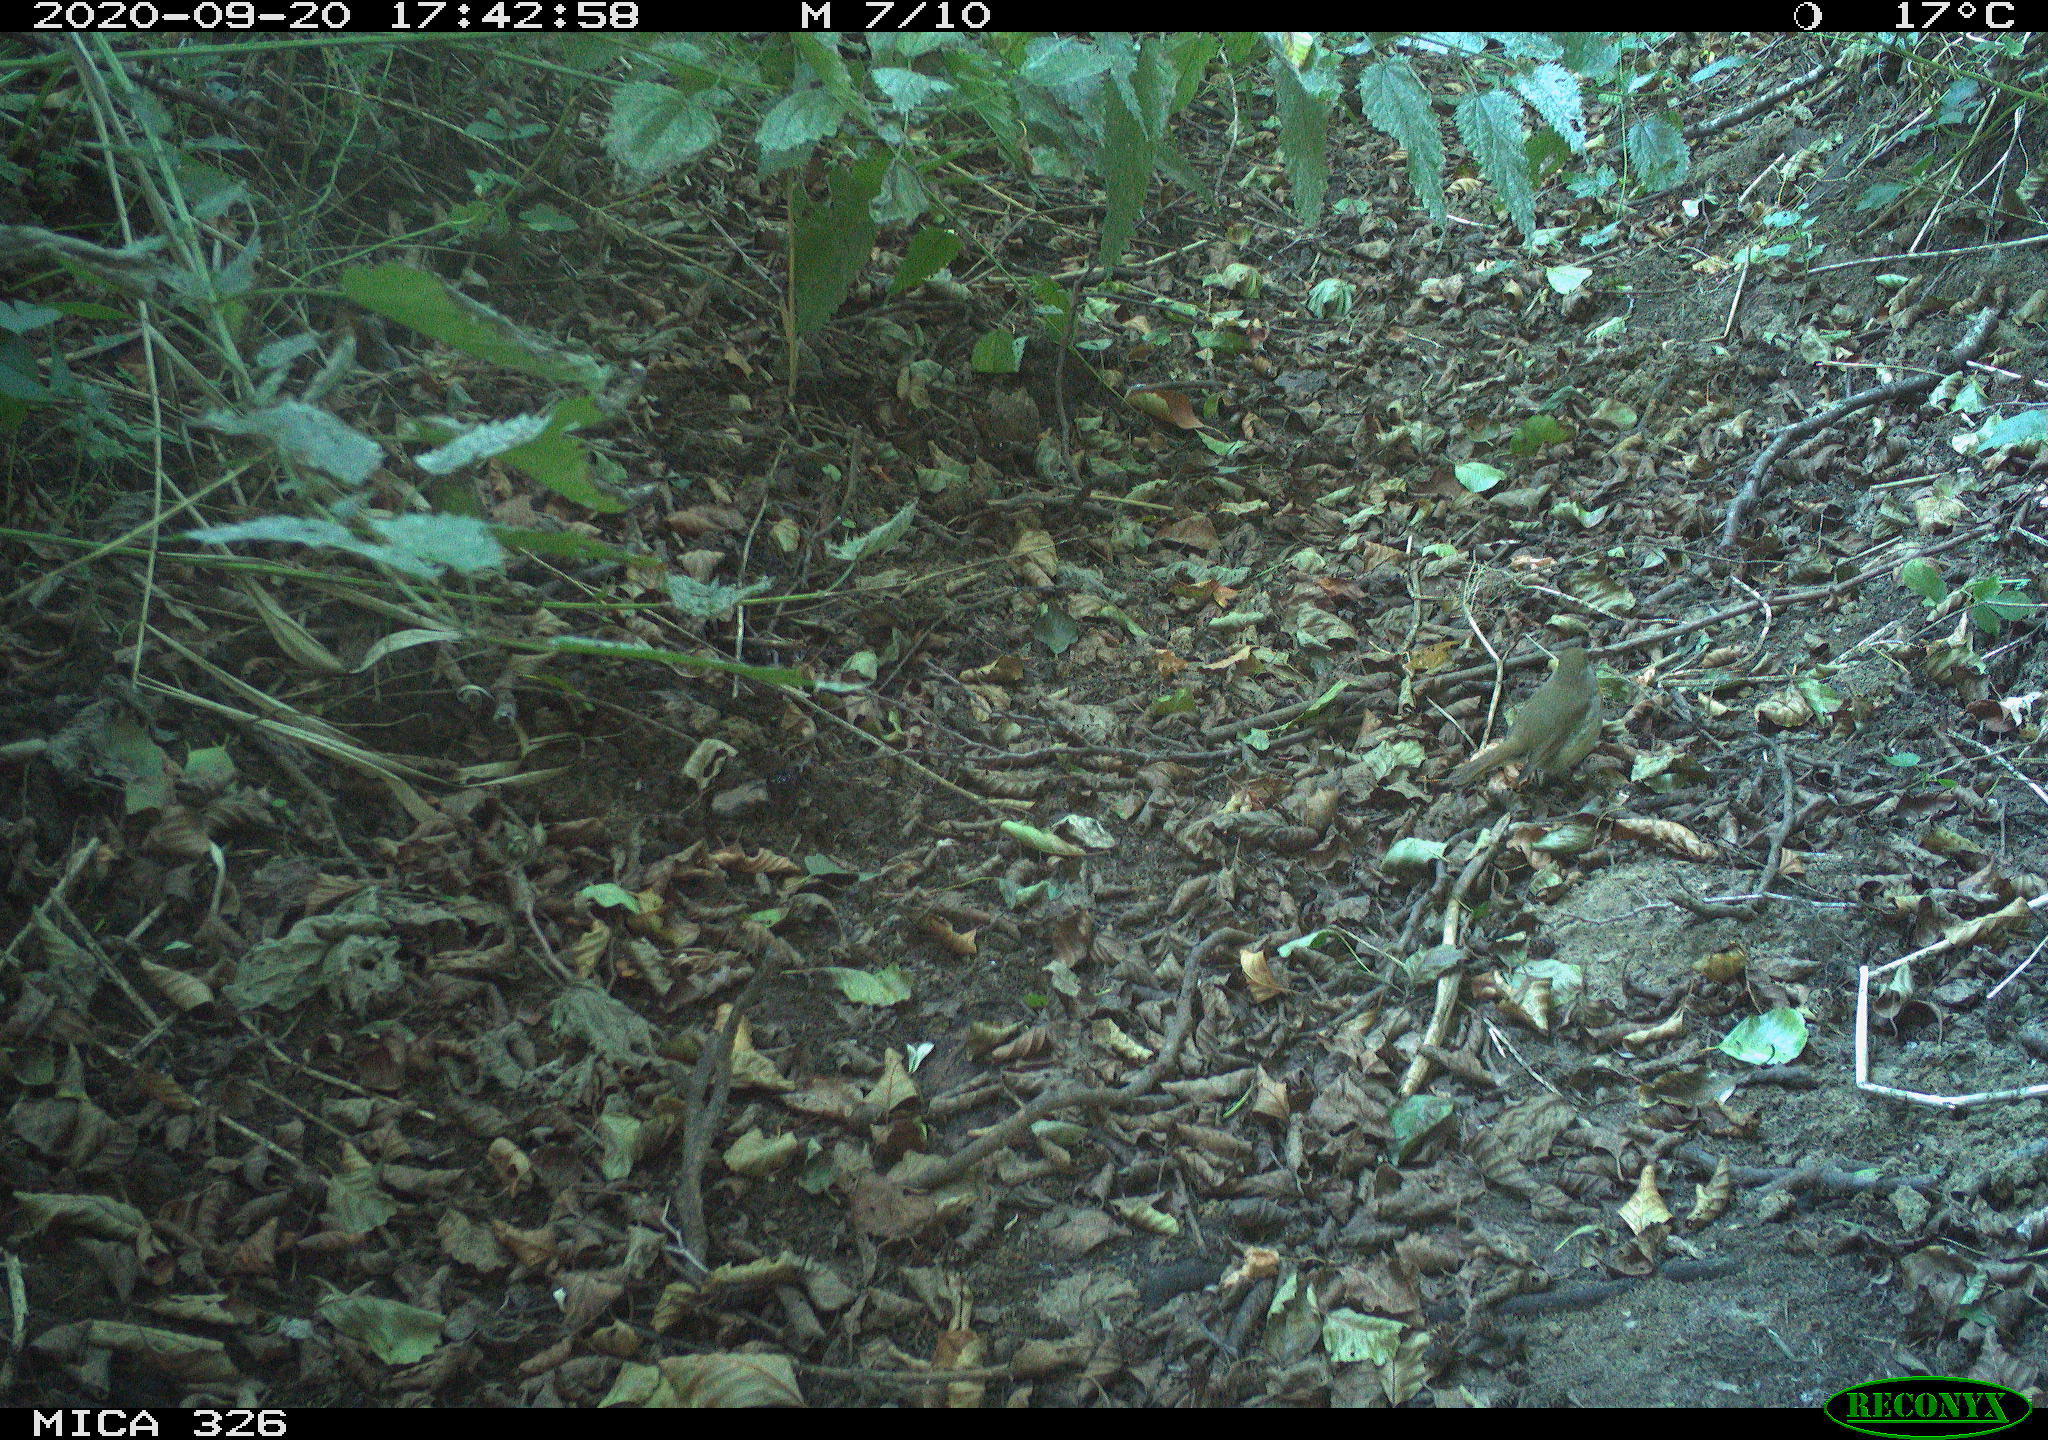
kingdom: Animalia
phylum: Chordata
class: Aves
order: Passeriformes
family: Muscicapidae
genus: Erithacus
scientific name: Erithacus rubecula
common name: European robin
